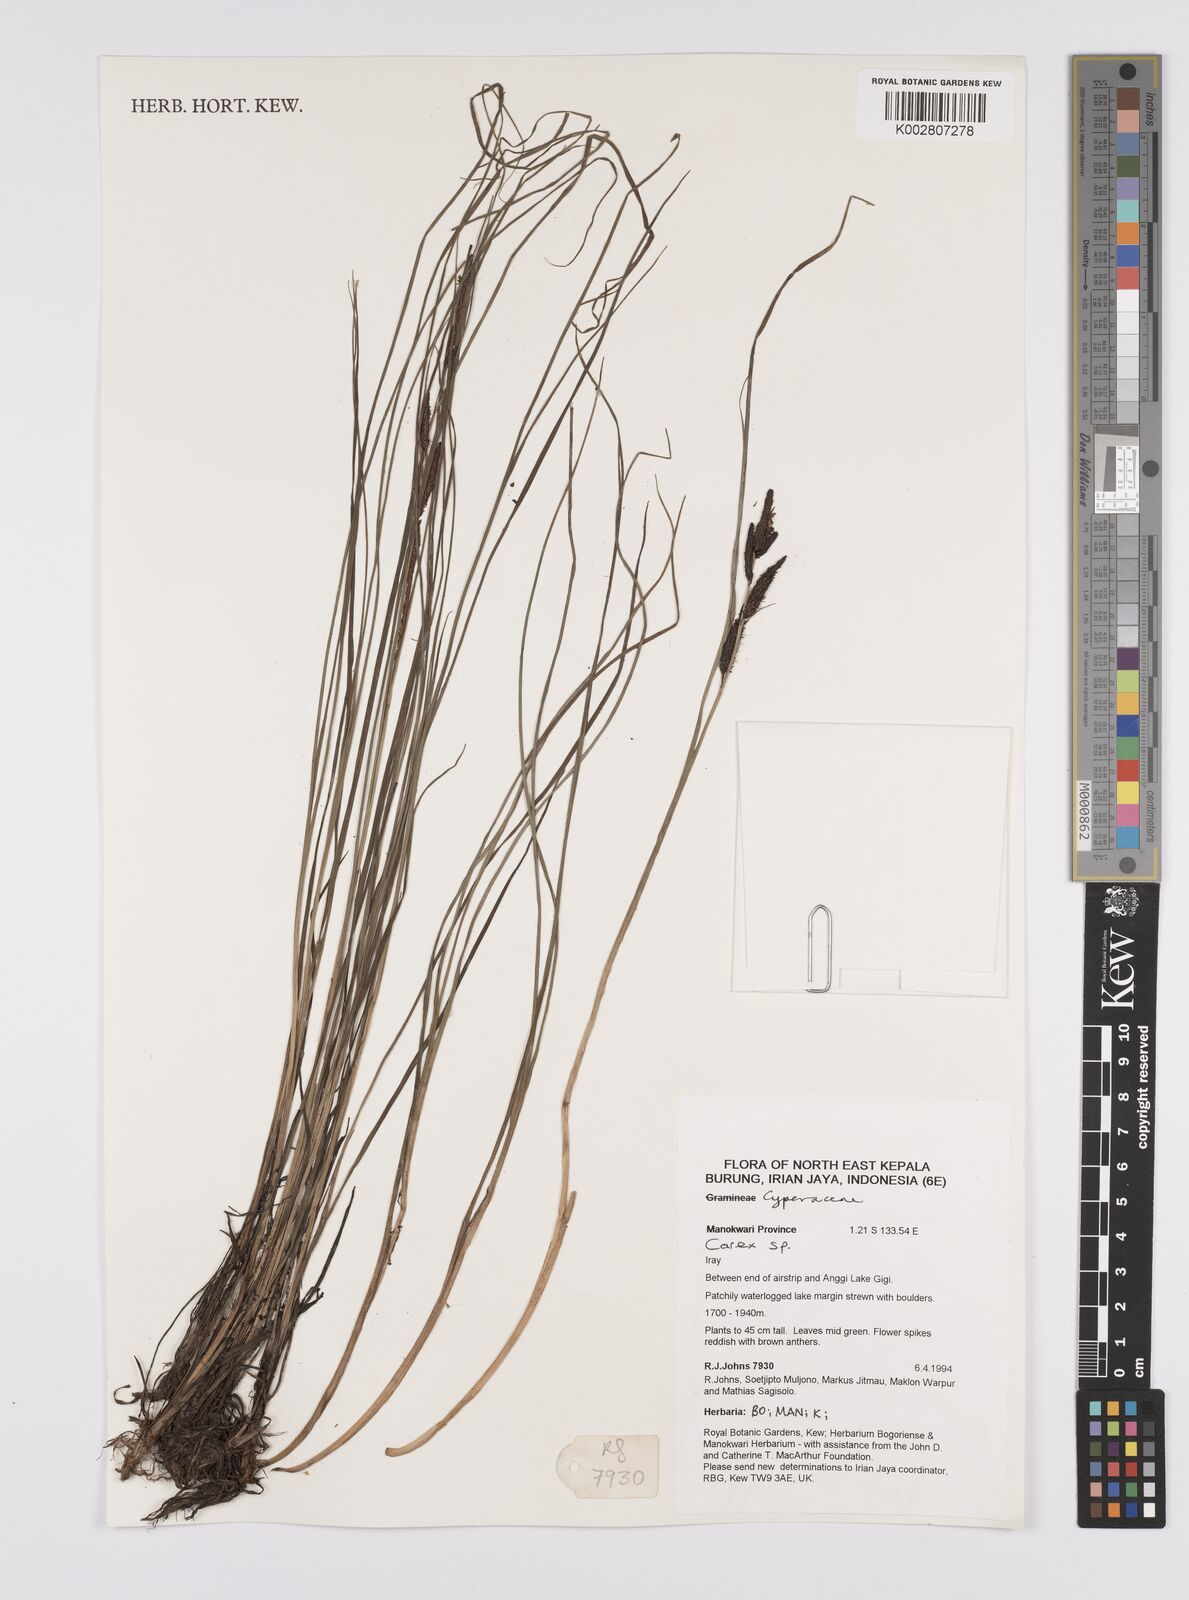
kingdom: Plantae
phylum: Tracheophyta
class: Liliopsida
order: Poales
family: Cyperaceae
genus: Carex
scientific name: Carex
